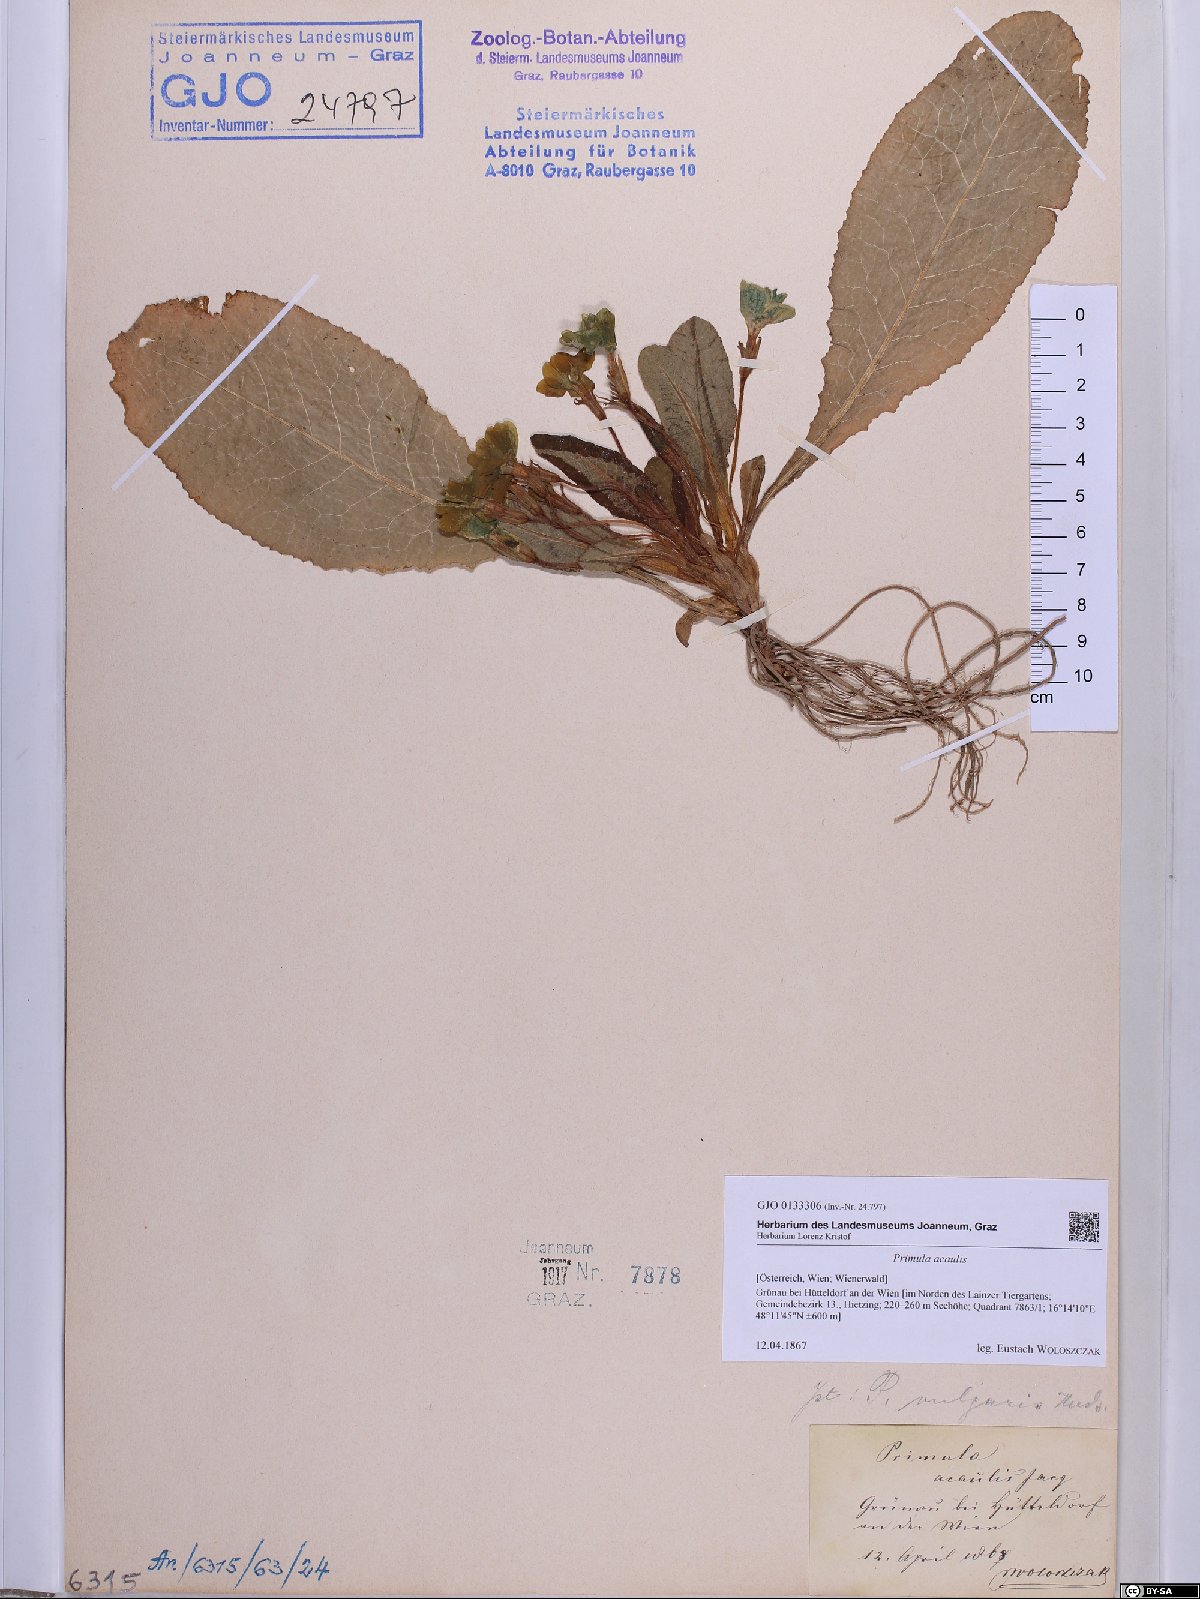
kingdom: Plantae
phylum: Tracheophyta
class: Magnoliopsida
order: Ericales
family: Primulaceae
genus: Primula
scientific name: Primula vulgaris
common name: Primrose
